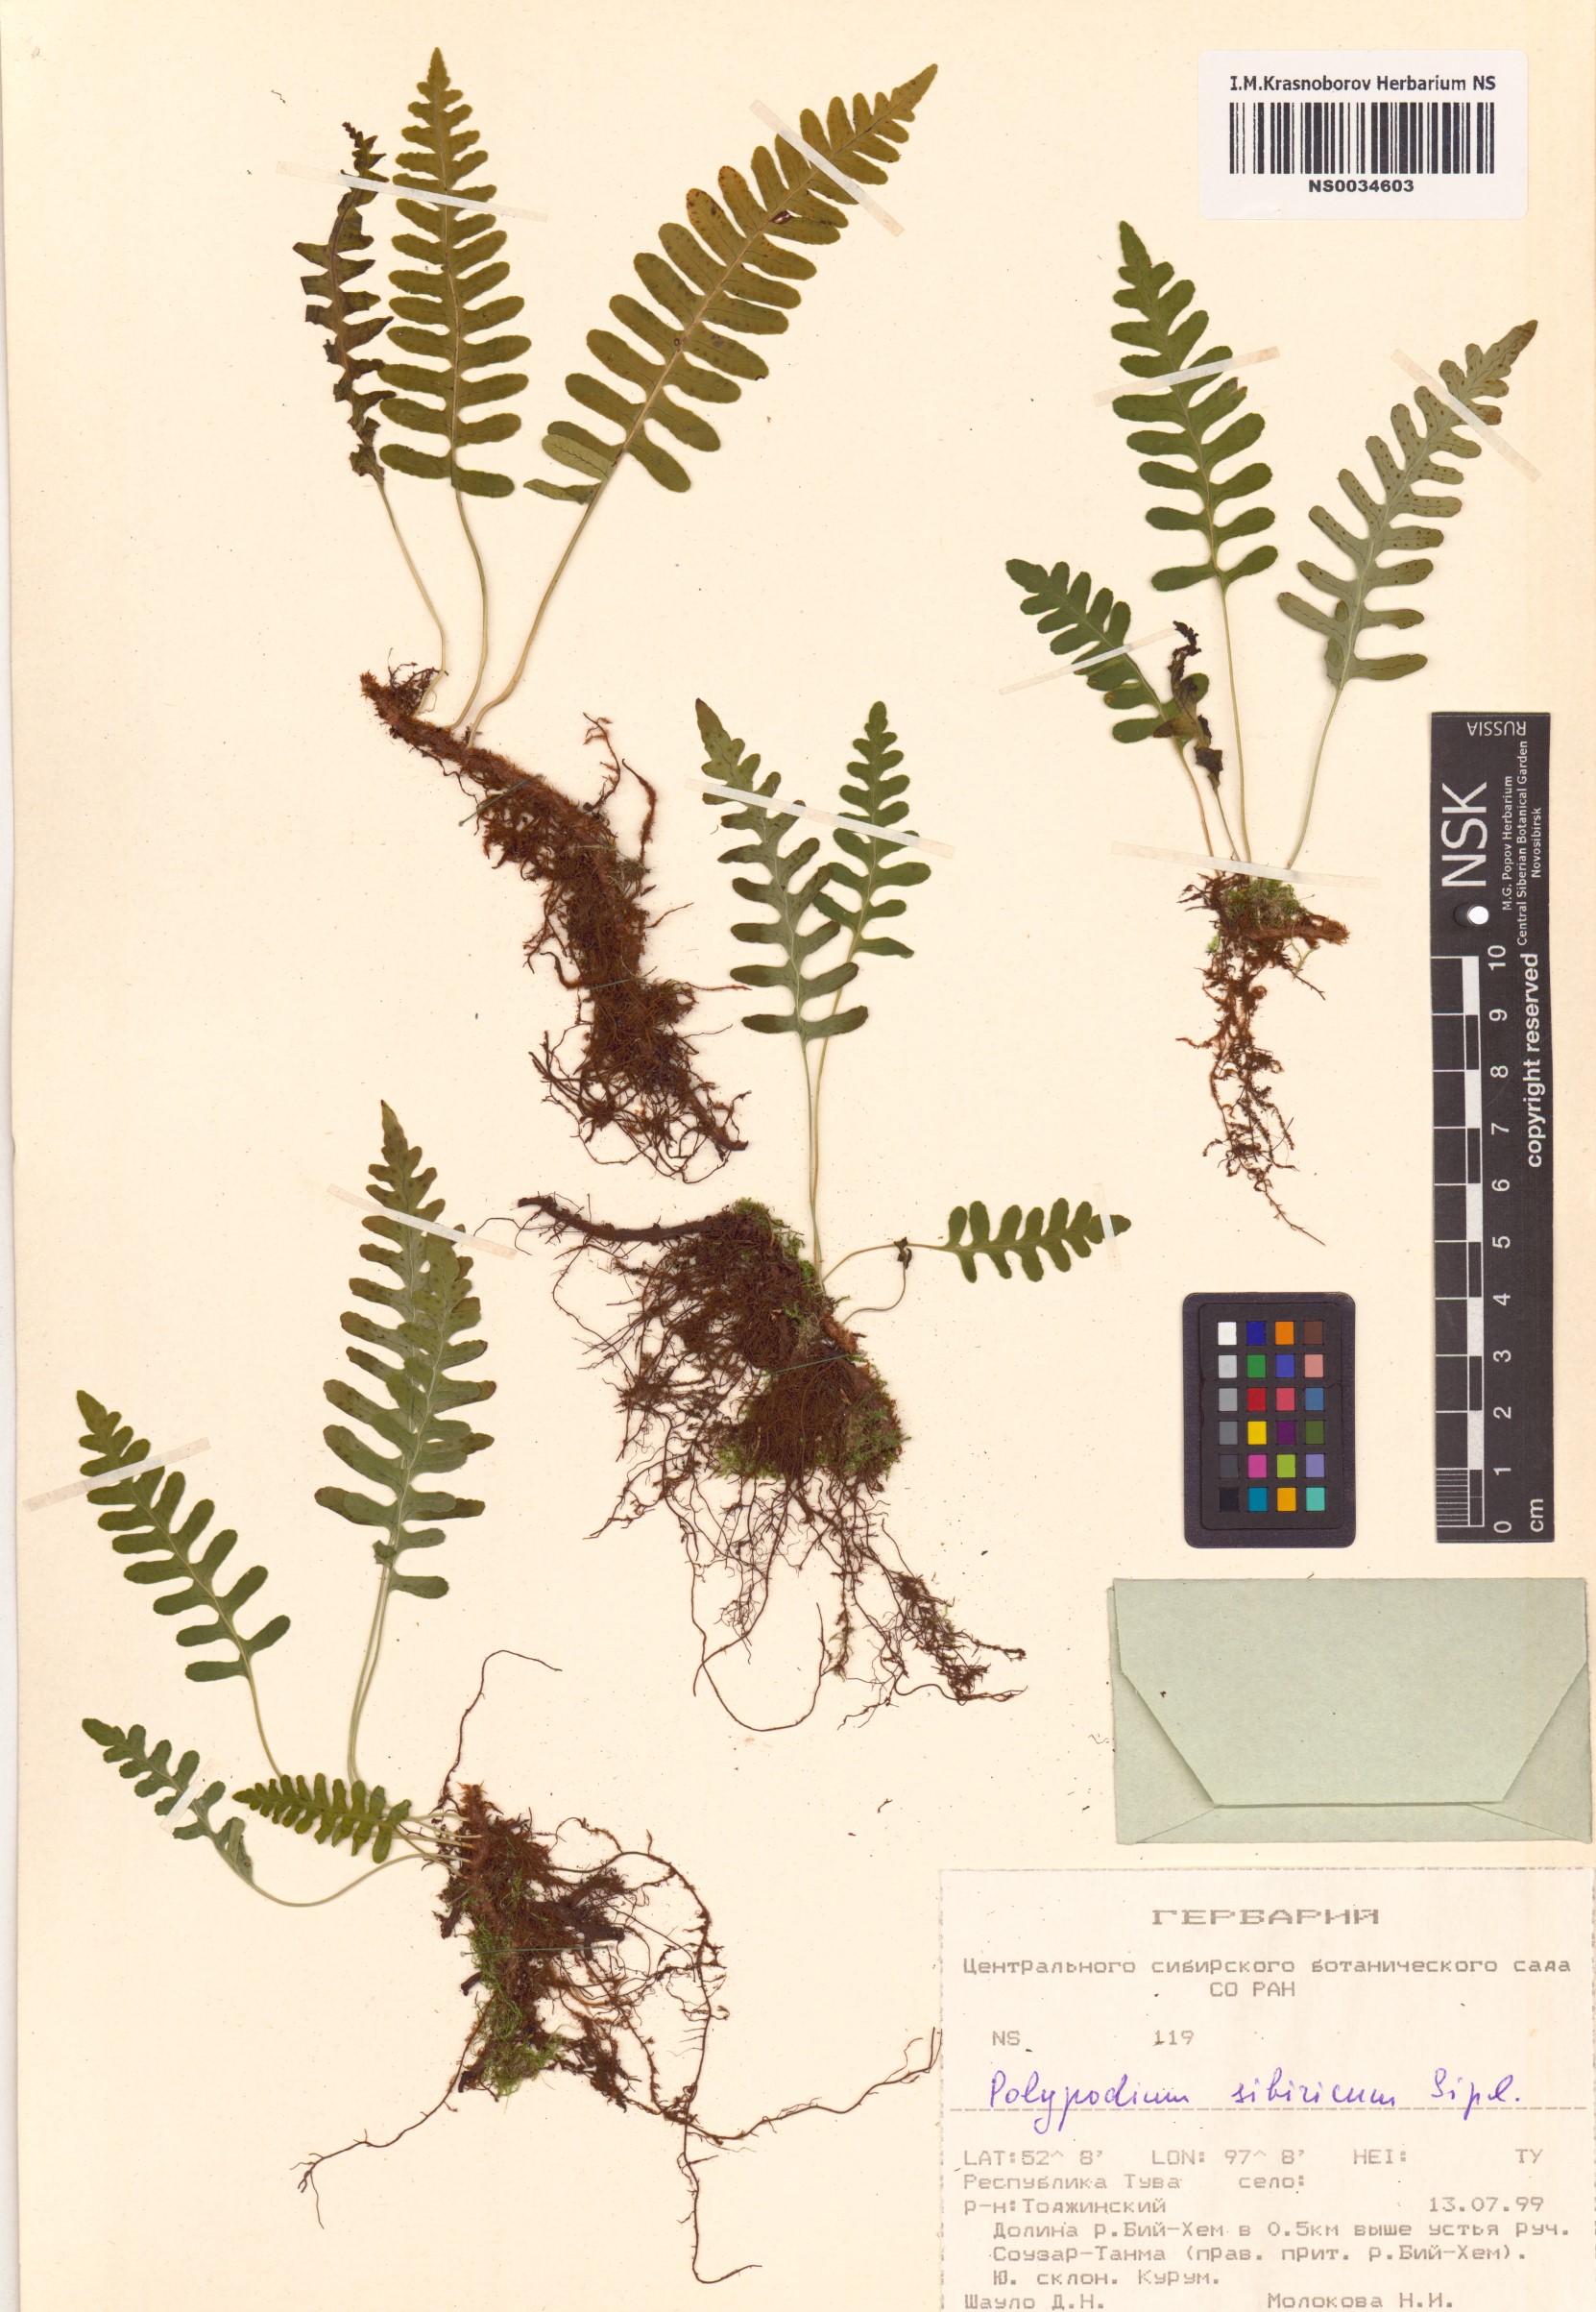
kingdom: Plantae
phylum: Tracheophyta
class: Polypodiopsida
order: Polypodiales
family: Polypodiaceae
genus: Polypodium
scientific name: Polypodium sibiricum
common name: Siberian polypody
